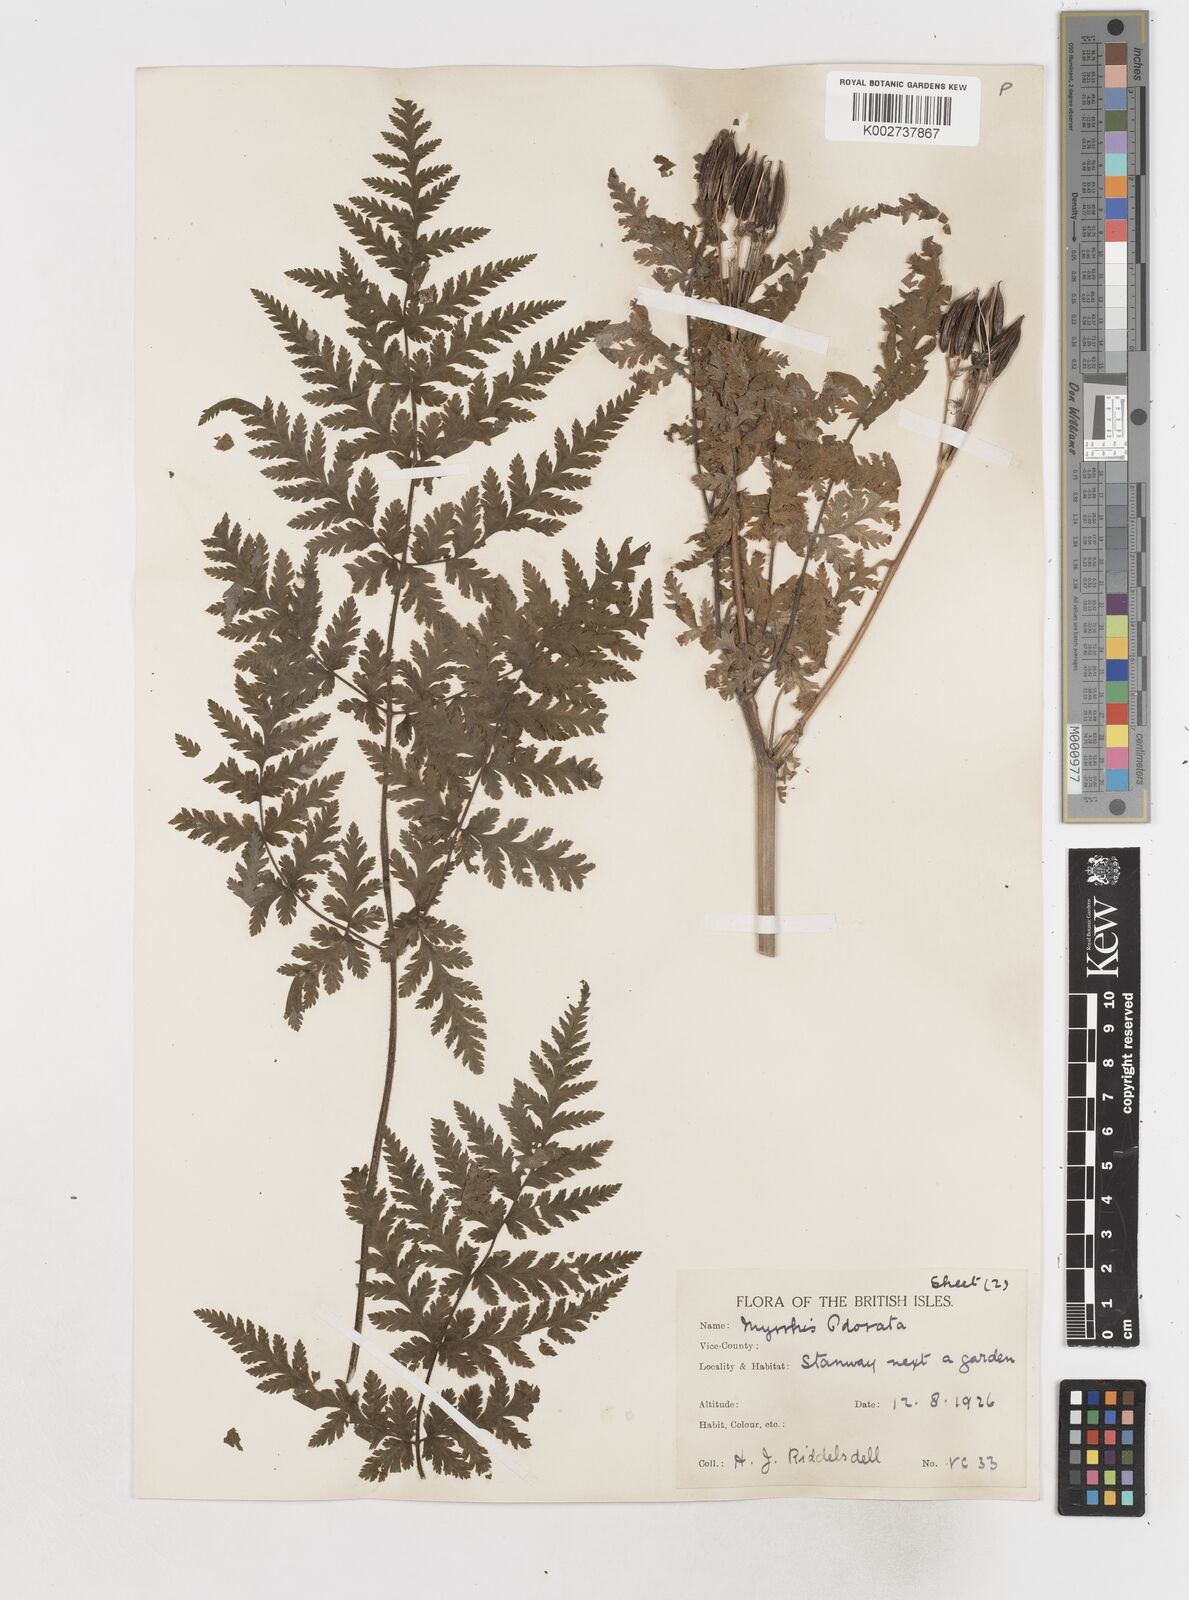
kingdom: Plantae
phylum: Tracheophyta
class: Magnoliopsida
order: Apiales
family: Apiaceae
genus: Myrrhis
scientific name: Myrrhis odorata
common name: Sweet cicely
